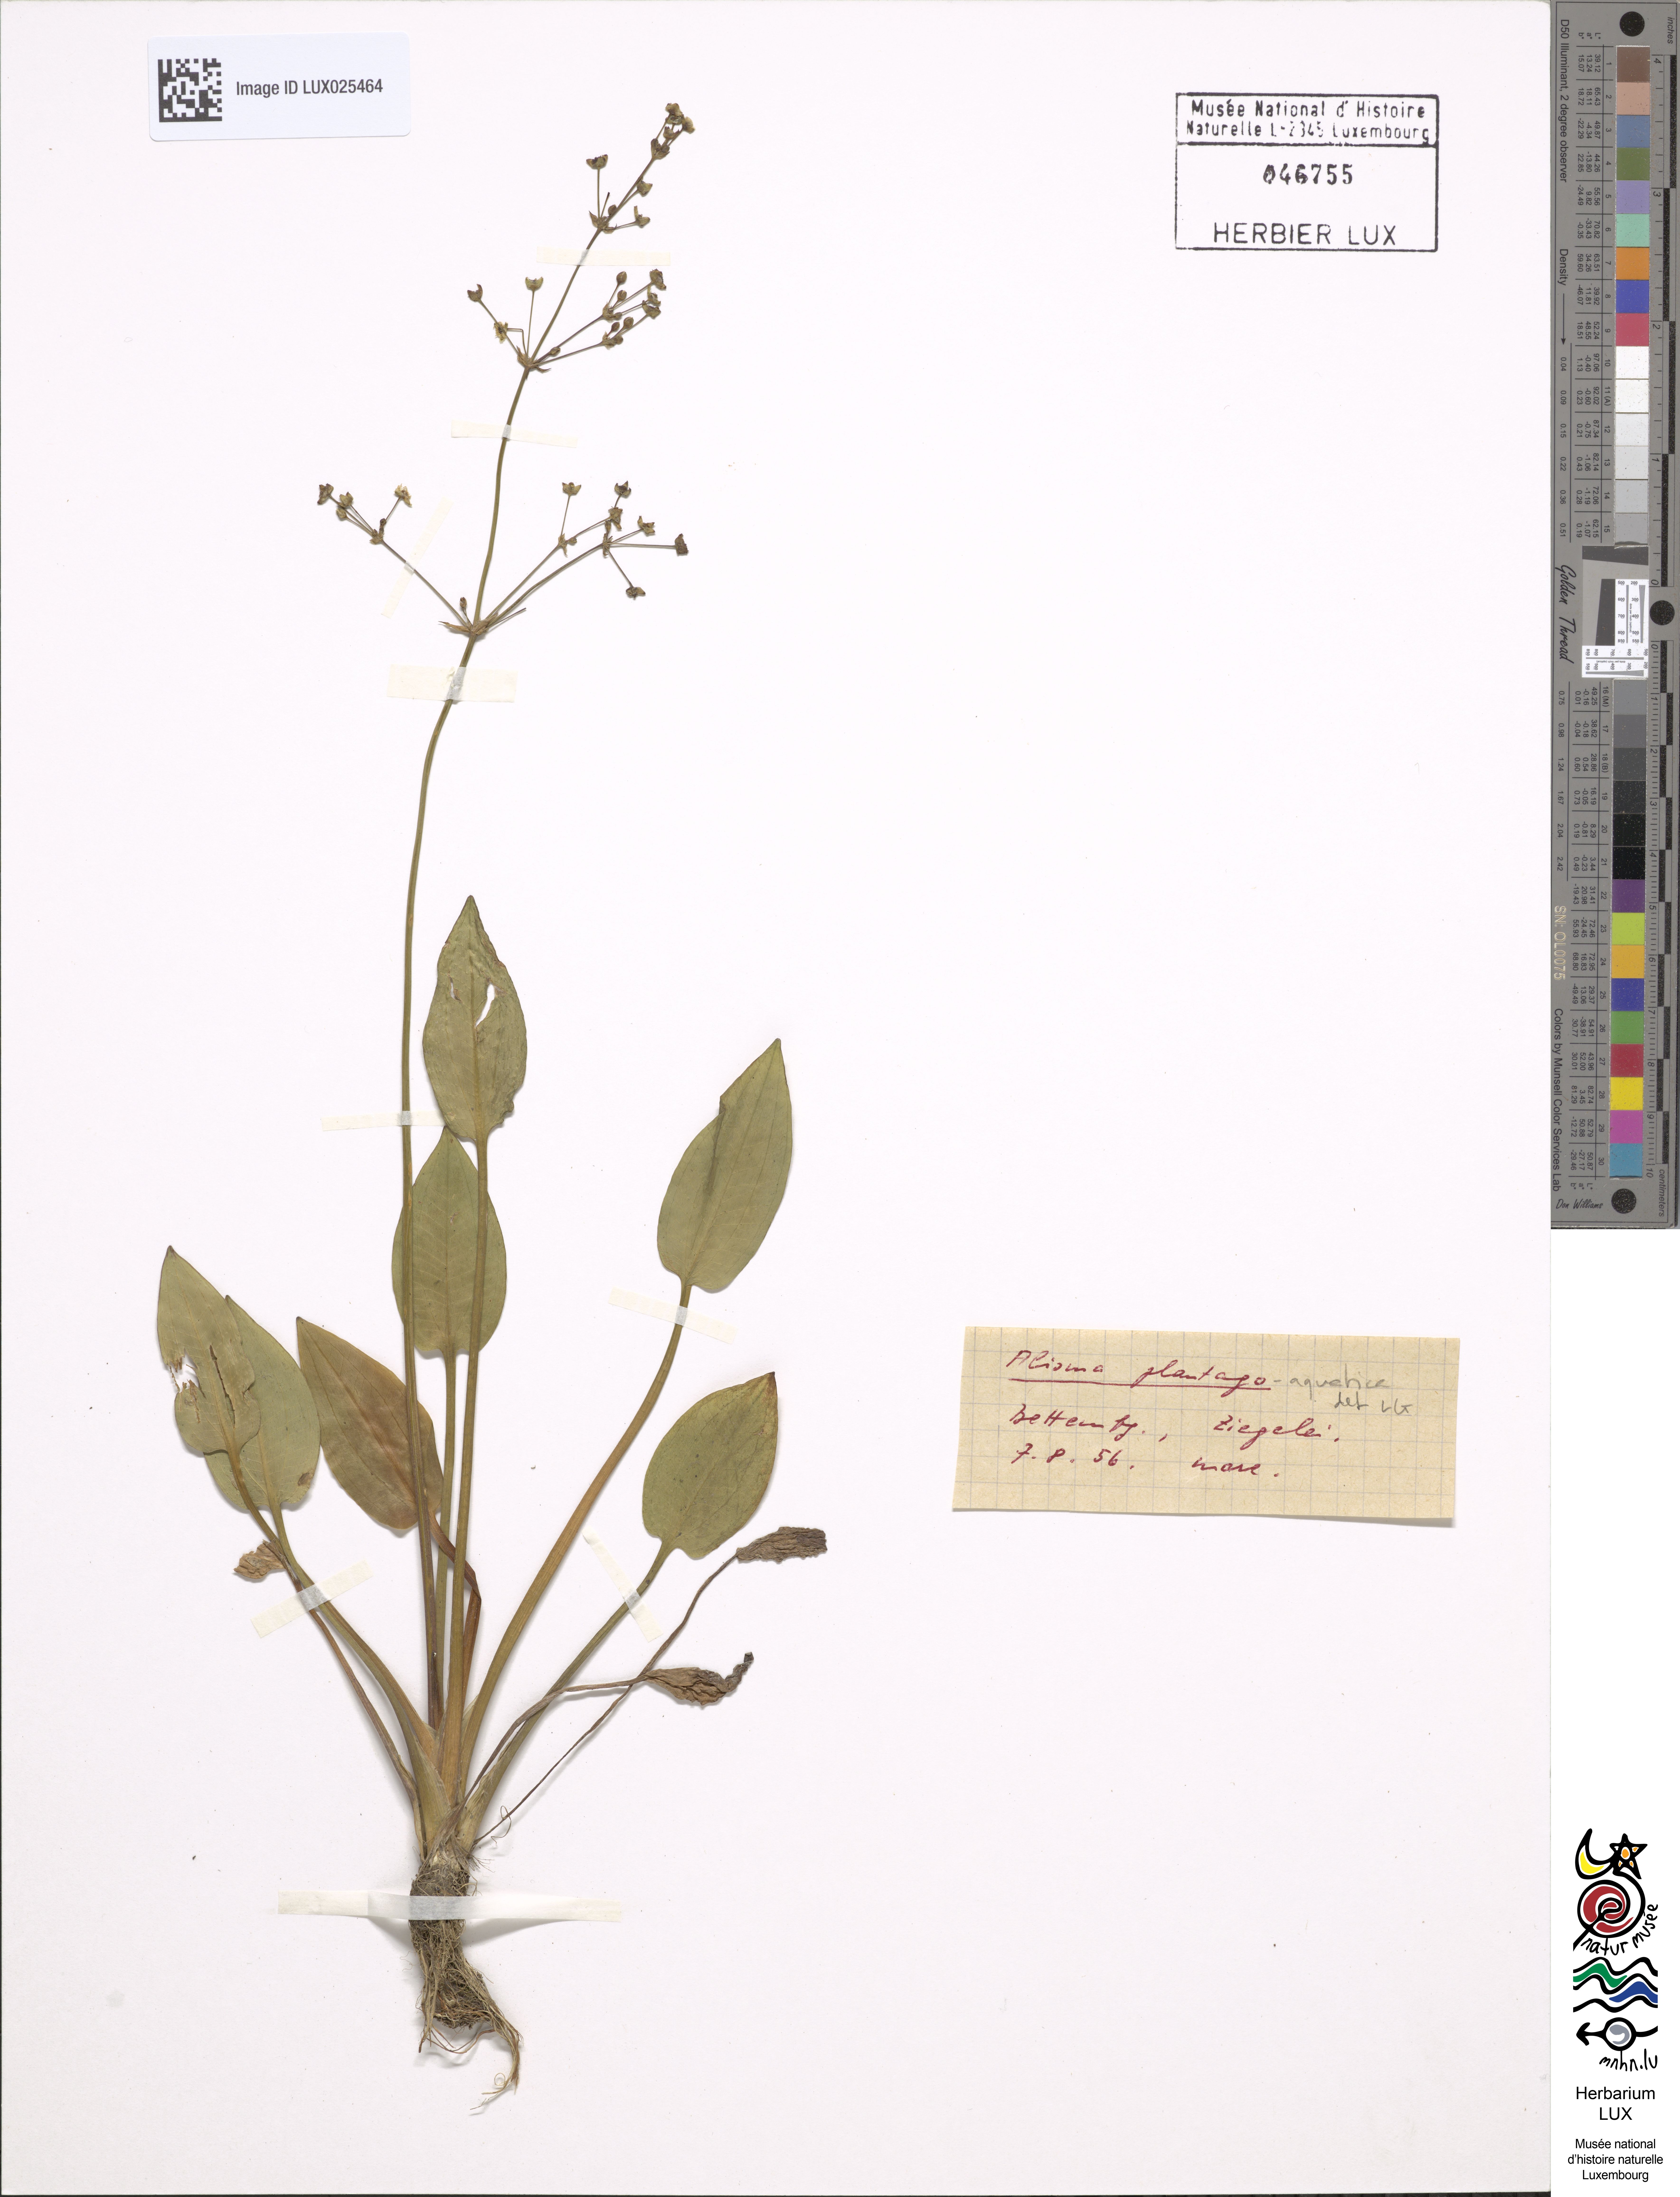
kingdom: Plantae
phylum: Tracheophyta
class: Liliopsida
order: Alismatales
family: Alismataceae
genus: Alisma
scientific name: Alisma plantago-aquatica
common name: Water-plantain
